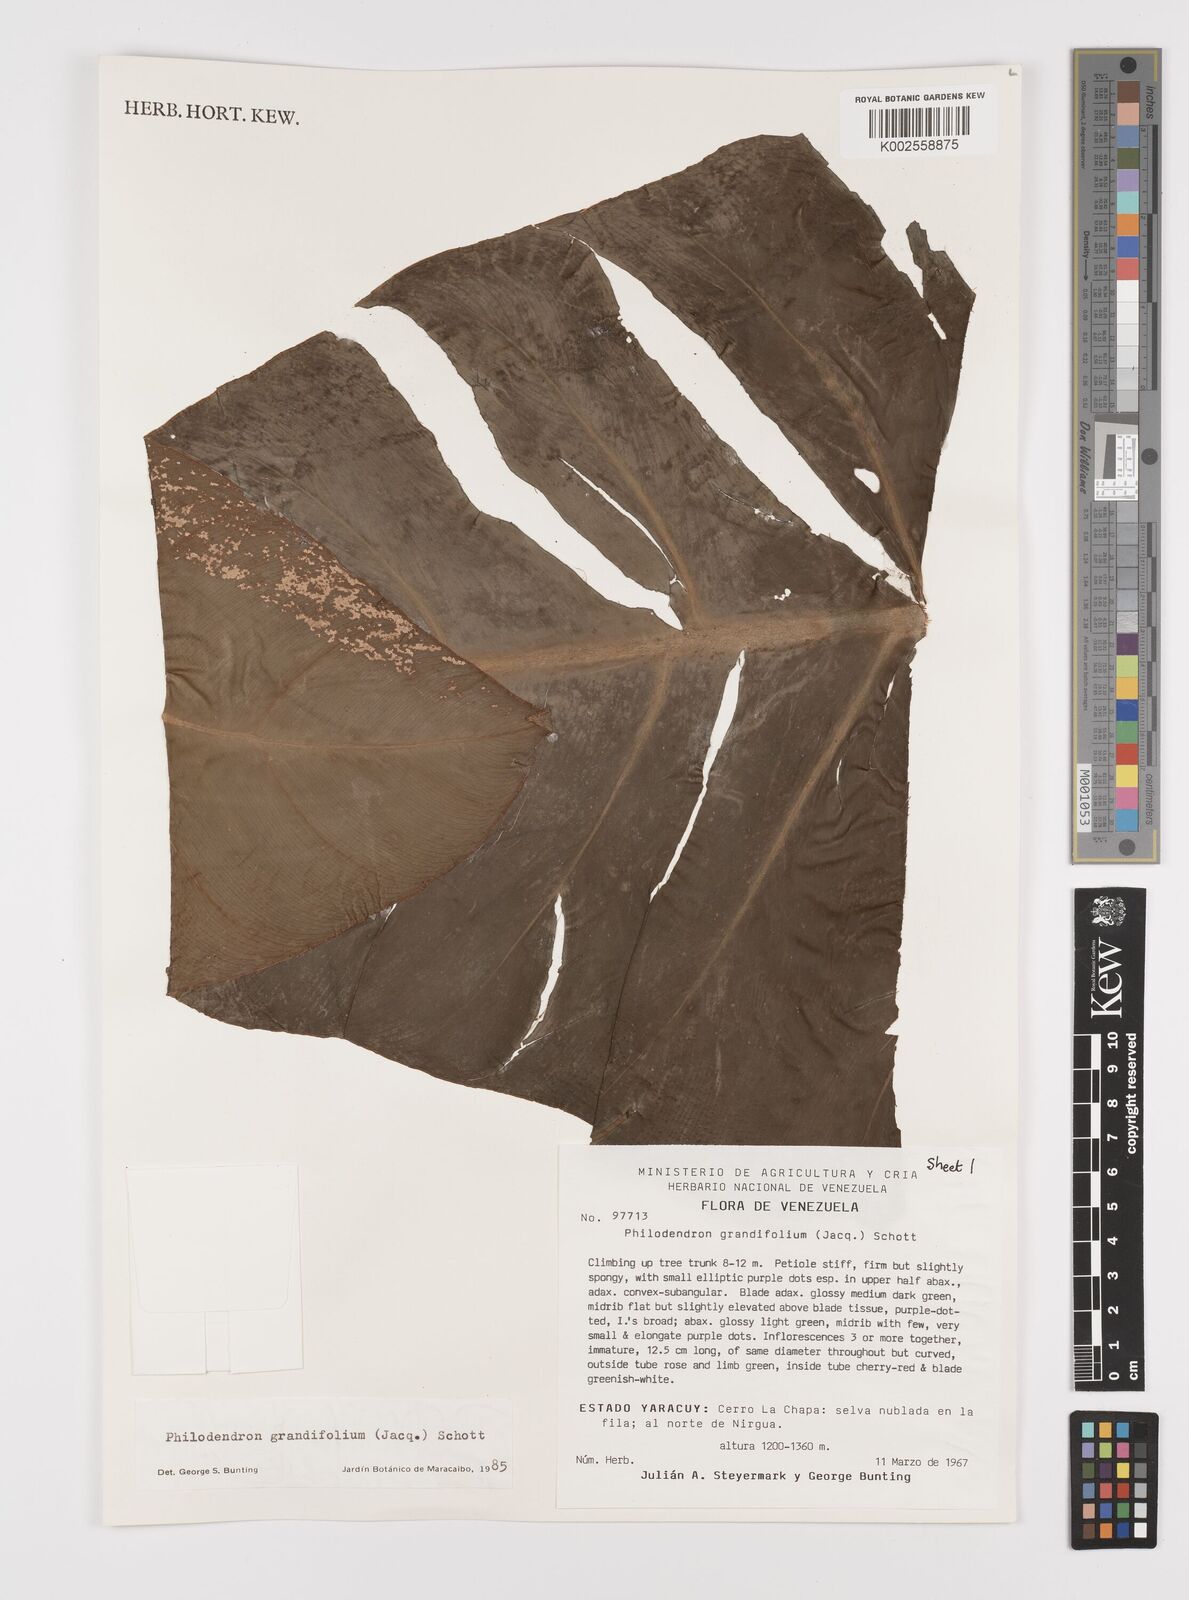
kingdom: Plantae
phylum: Tracheophyta
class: Liliopsida
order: Alismatales
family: Araceae
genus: Philodendron
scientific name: Philodendron grandifolium
